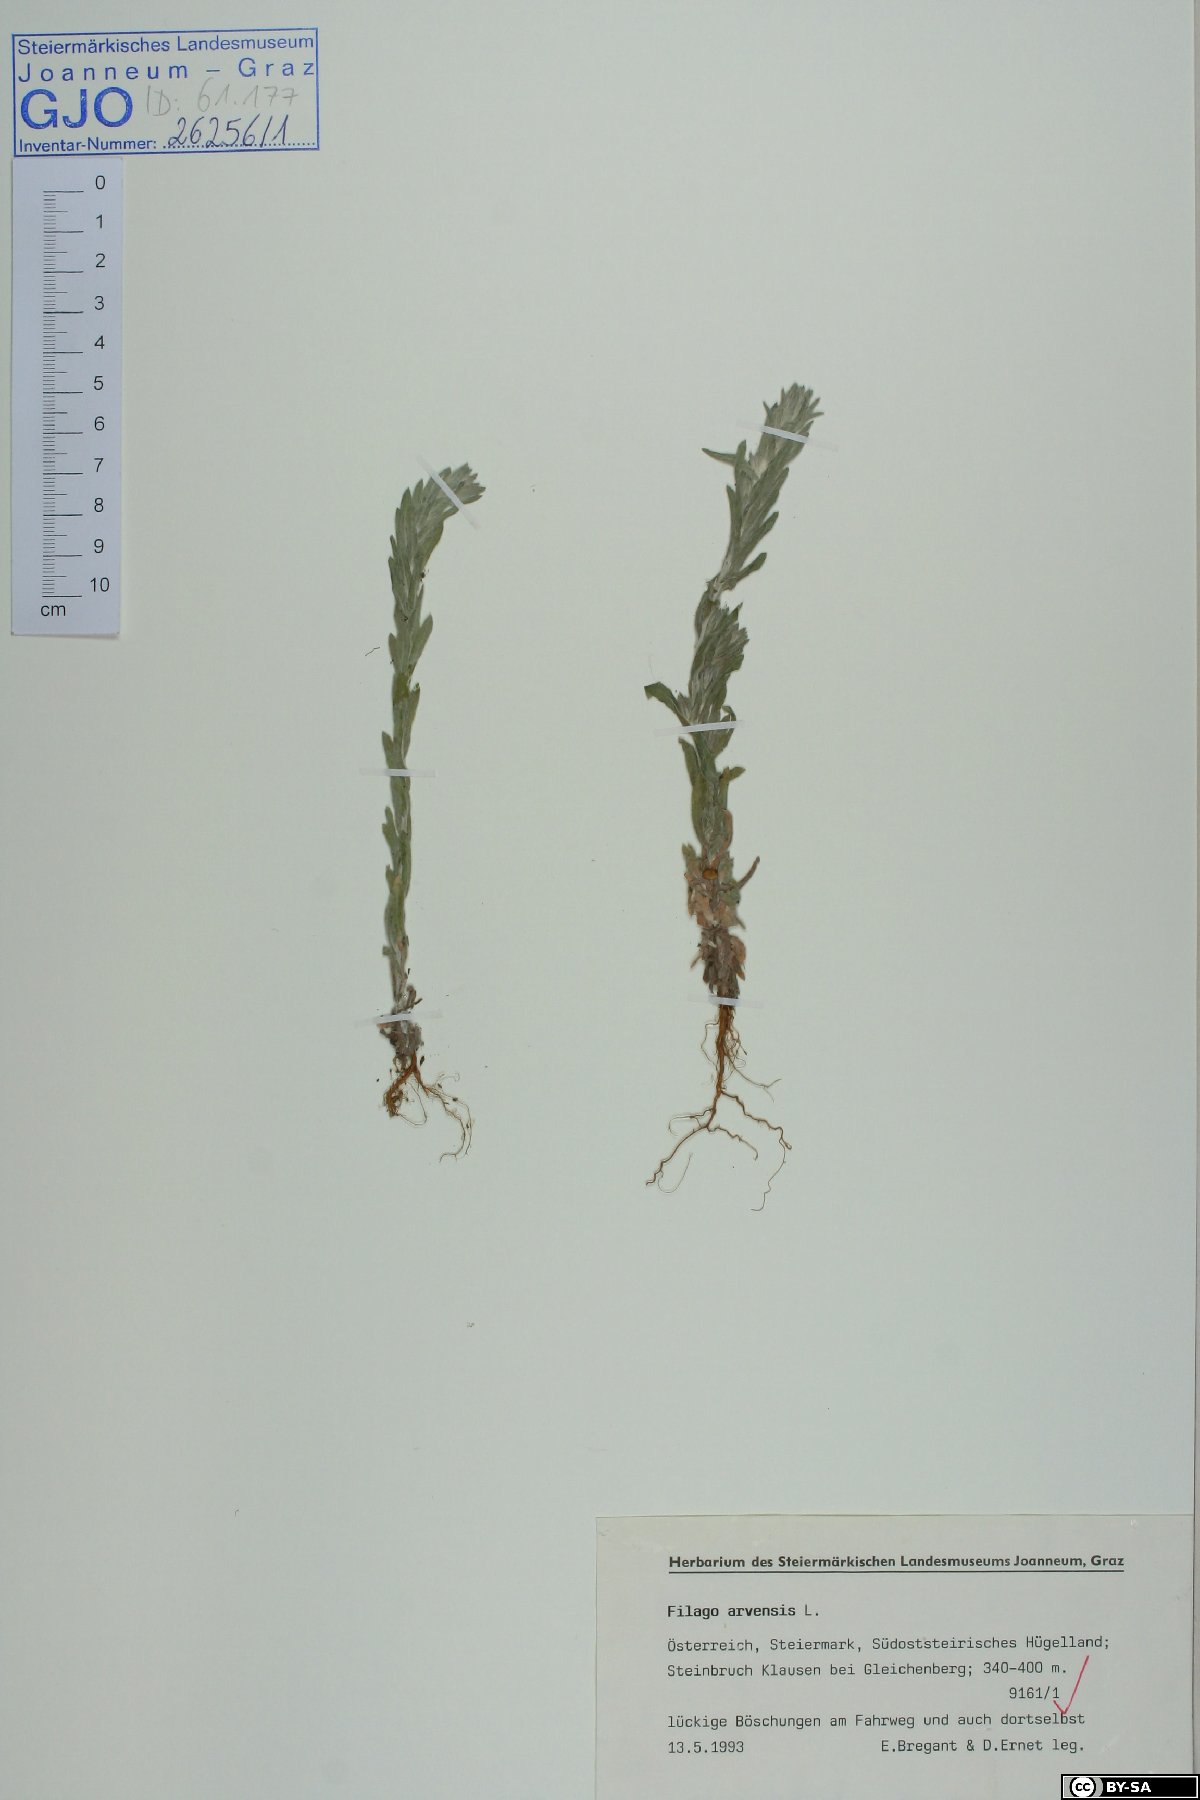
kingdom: Plantae
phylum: Tracheophyta
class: Magnoliopsida
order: Asterales
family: Asteraceae
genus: Filago
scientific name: Filago arvensis
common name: Field cudweed
